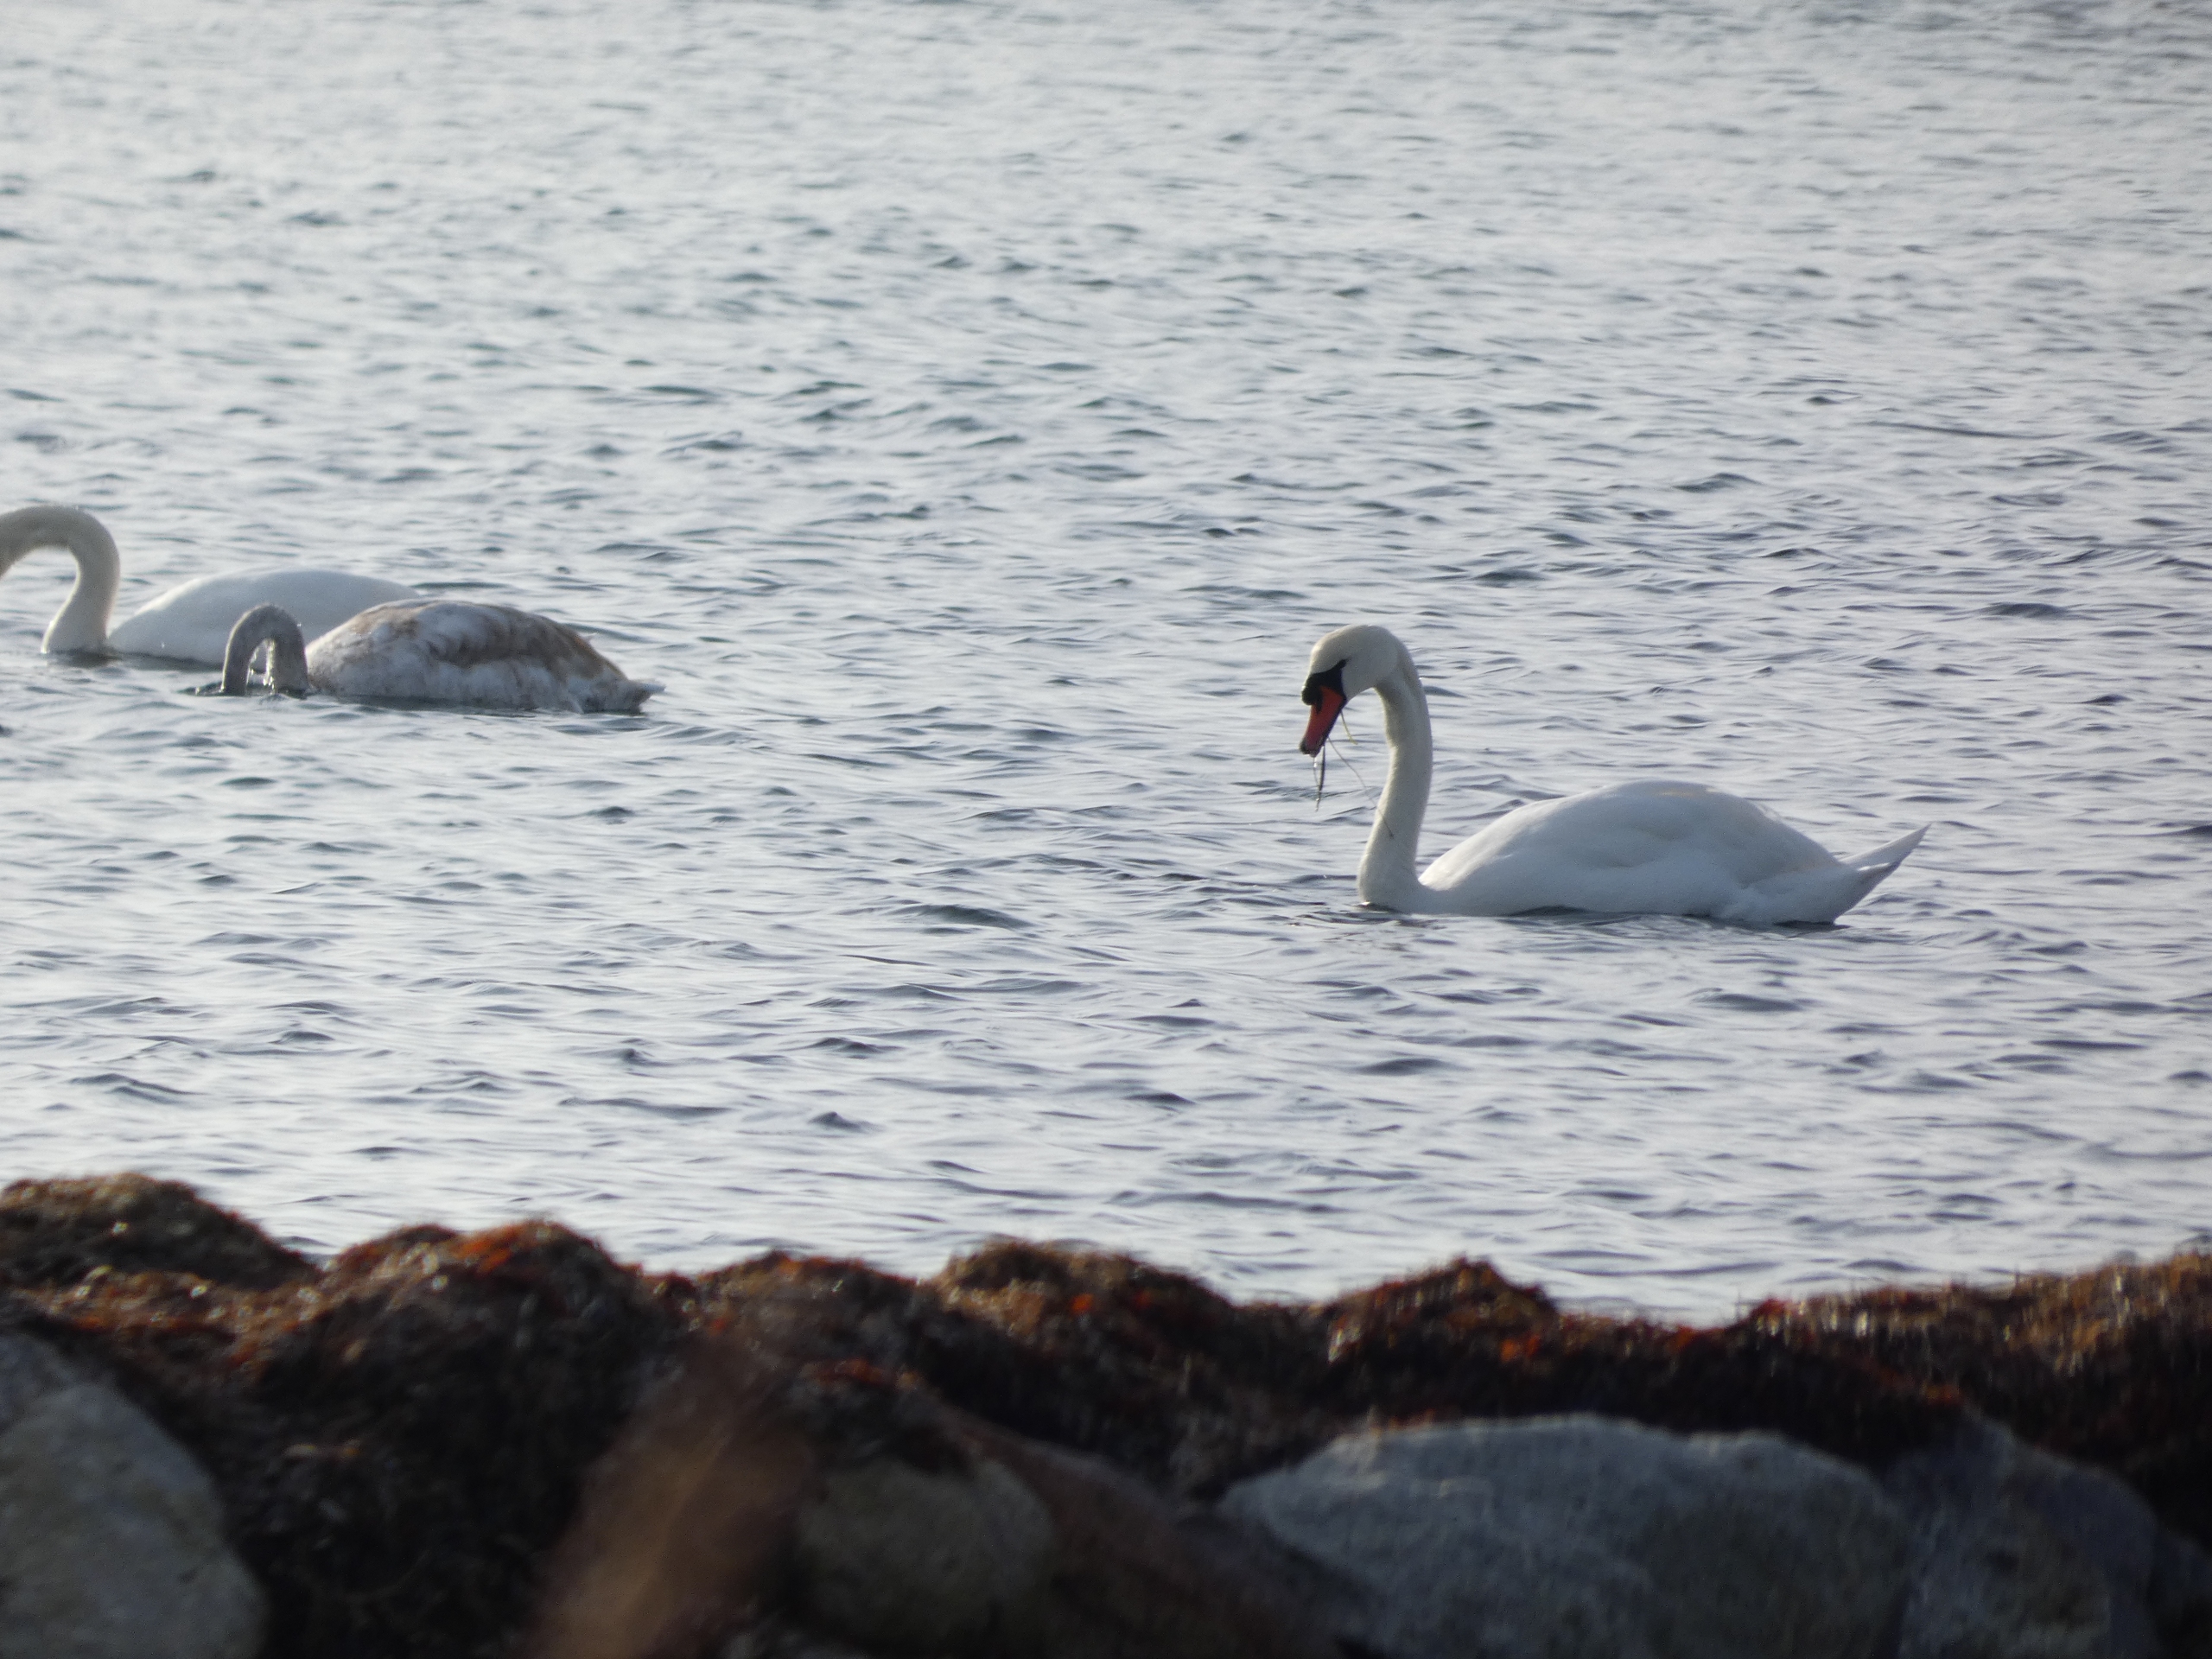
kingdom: Animalia
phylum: Chordata
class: Aves
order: Anseriformes
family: Anatidae
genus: Cygnus
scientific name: Cygnus olor
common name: Knopsvane
